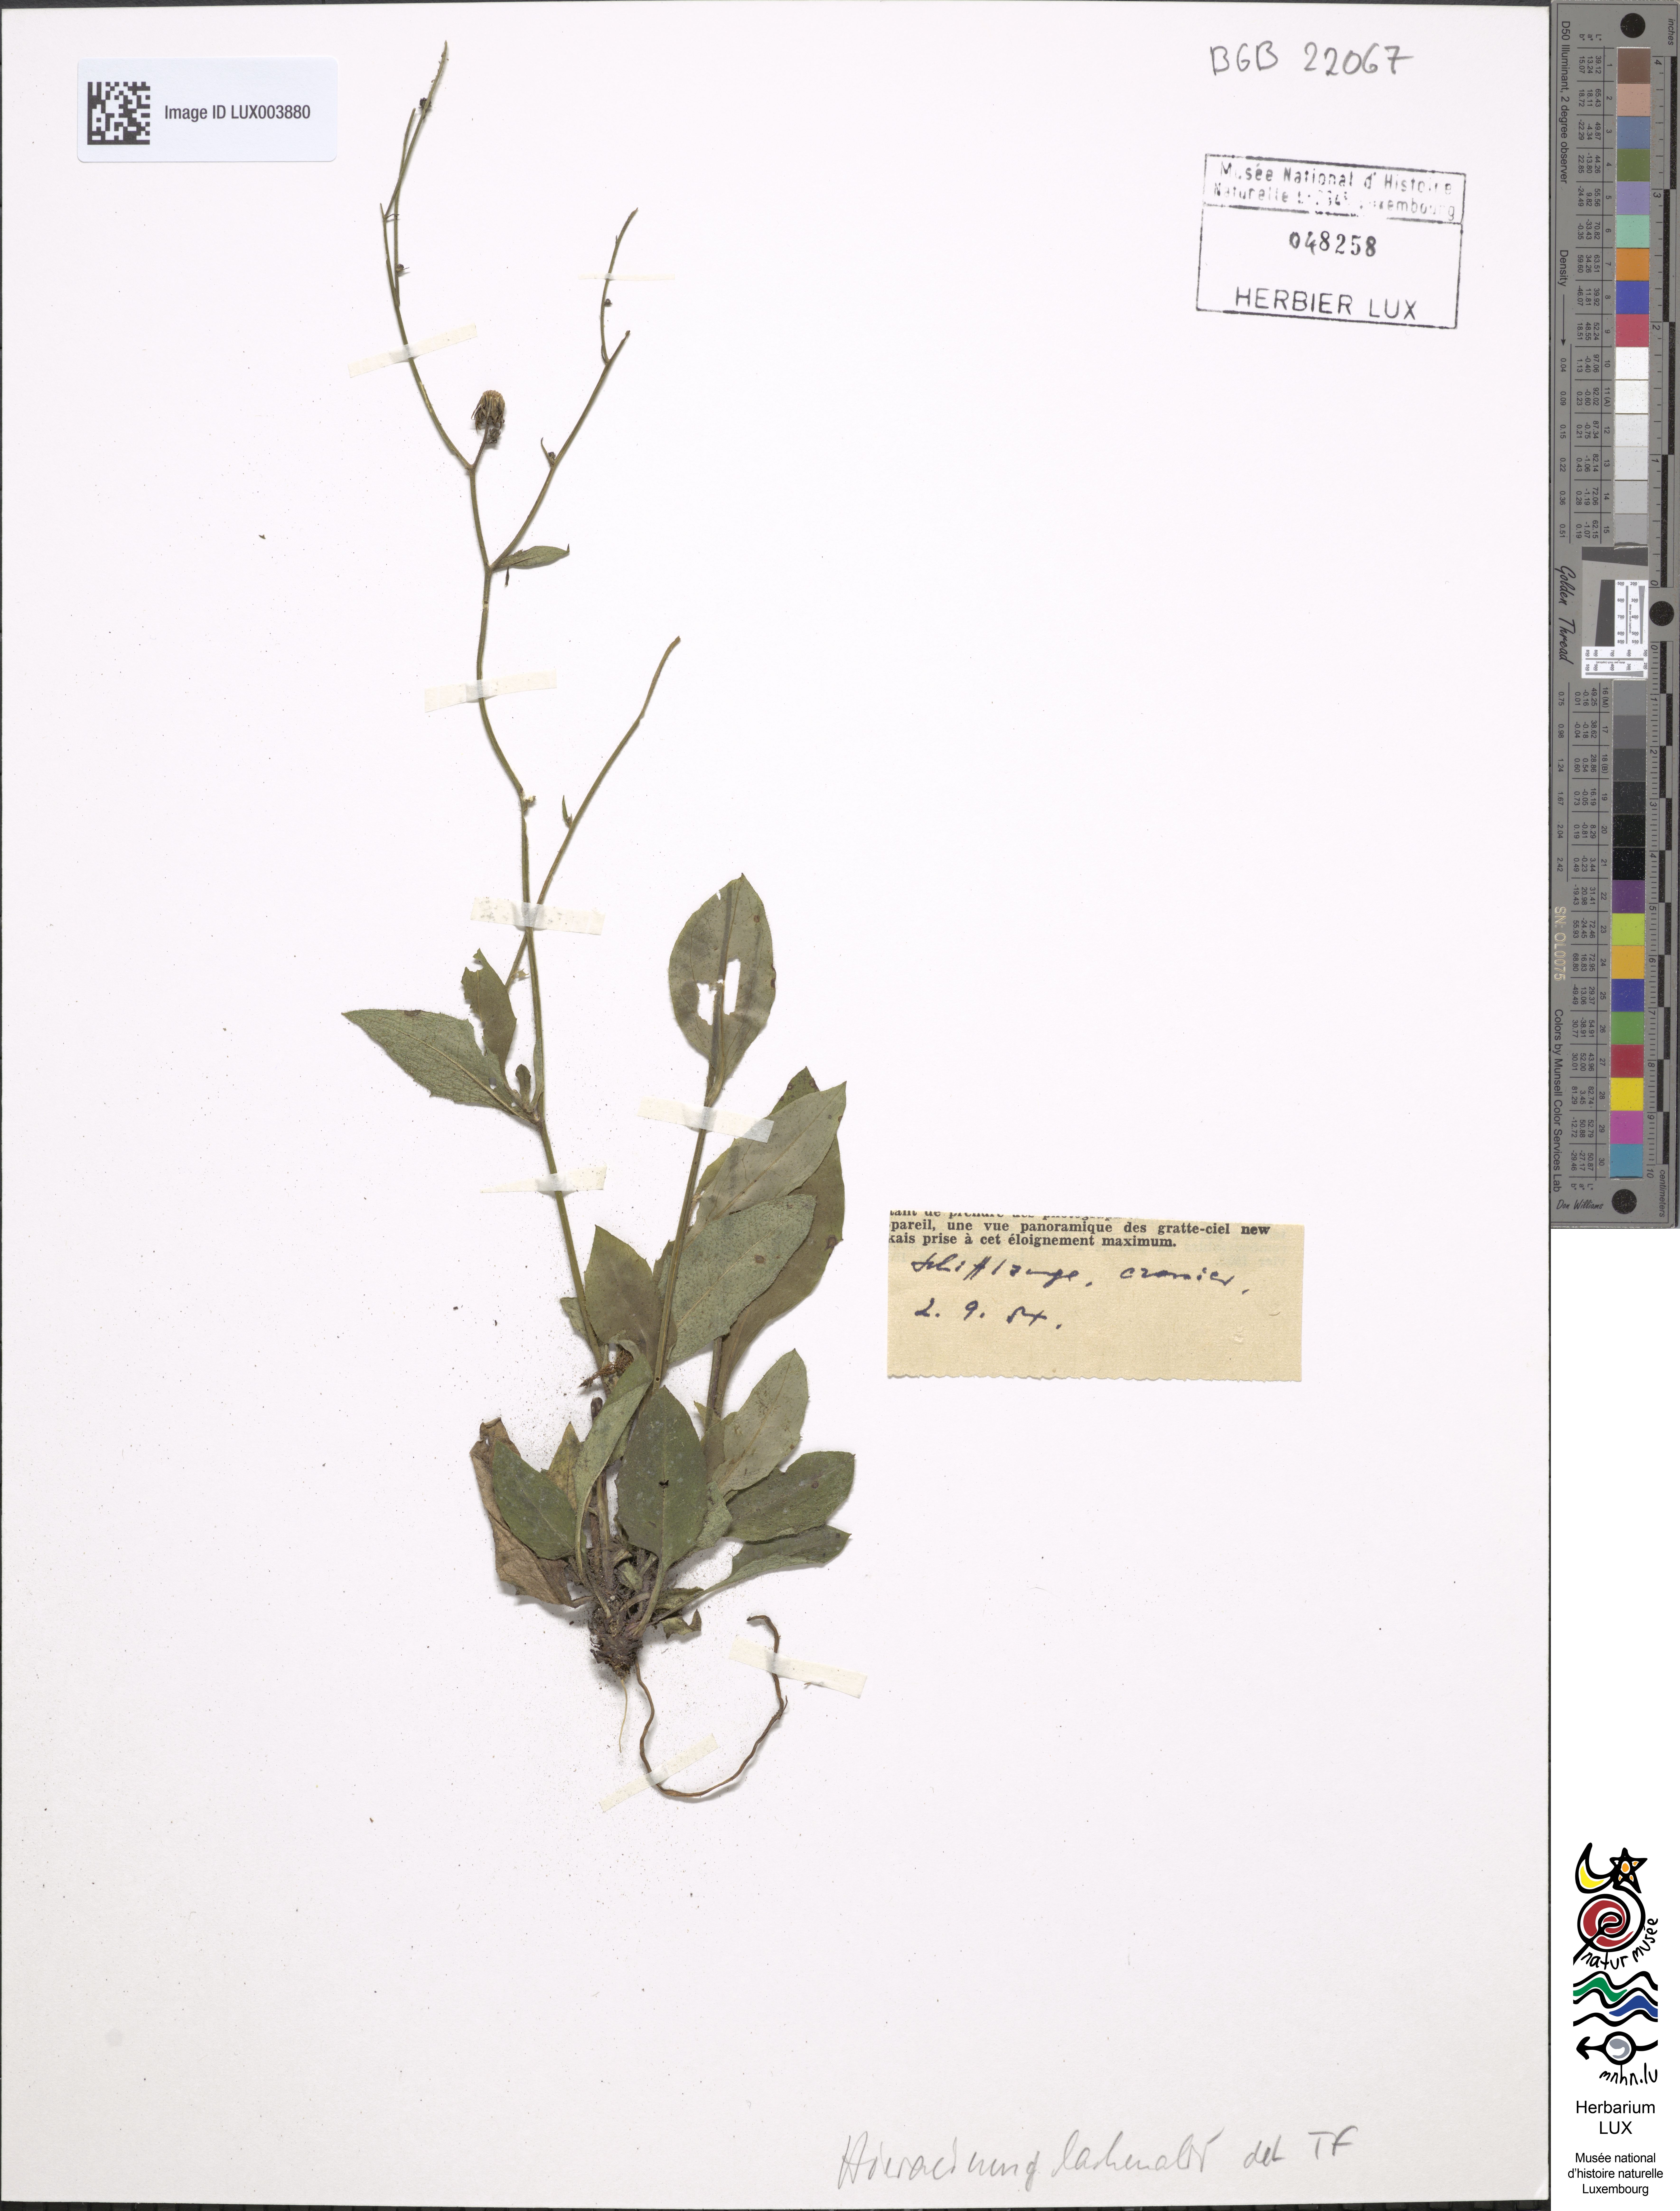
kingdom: Plantae
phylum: Tracheophyta
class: Magnoliopsida
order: Asterales
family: Asteraceae
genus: Hieracium
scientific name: Hieracium lachenalii
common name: Common hawkweed
